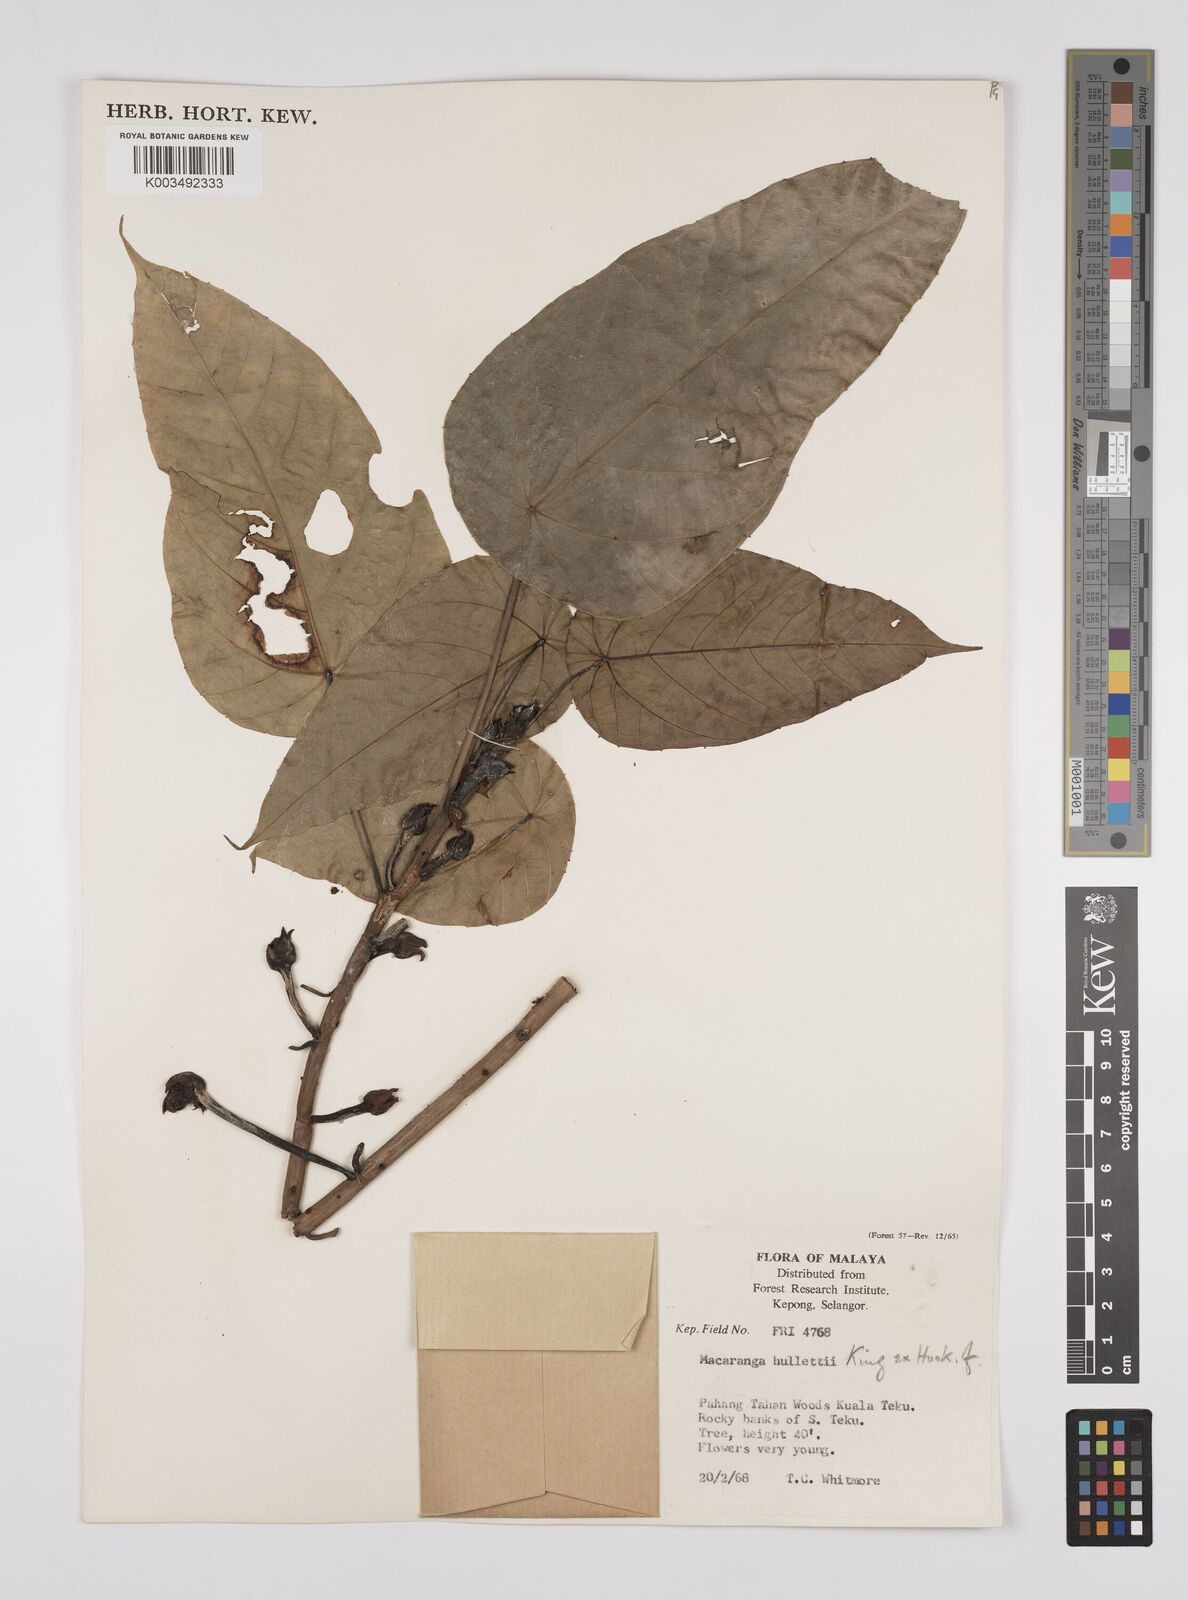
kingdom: Plantae
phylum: Tracheophyta
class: Magnoliopsida
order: Malpighiales
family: Euphorbiaceae
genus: Macaranga
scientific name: Macaranga hullettii
